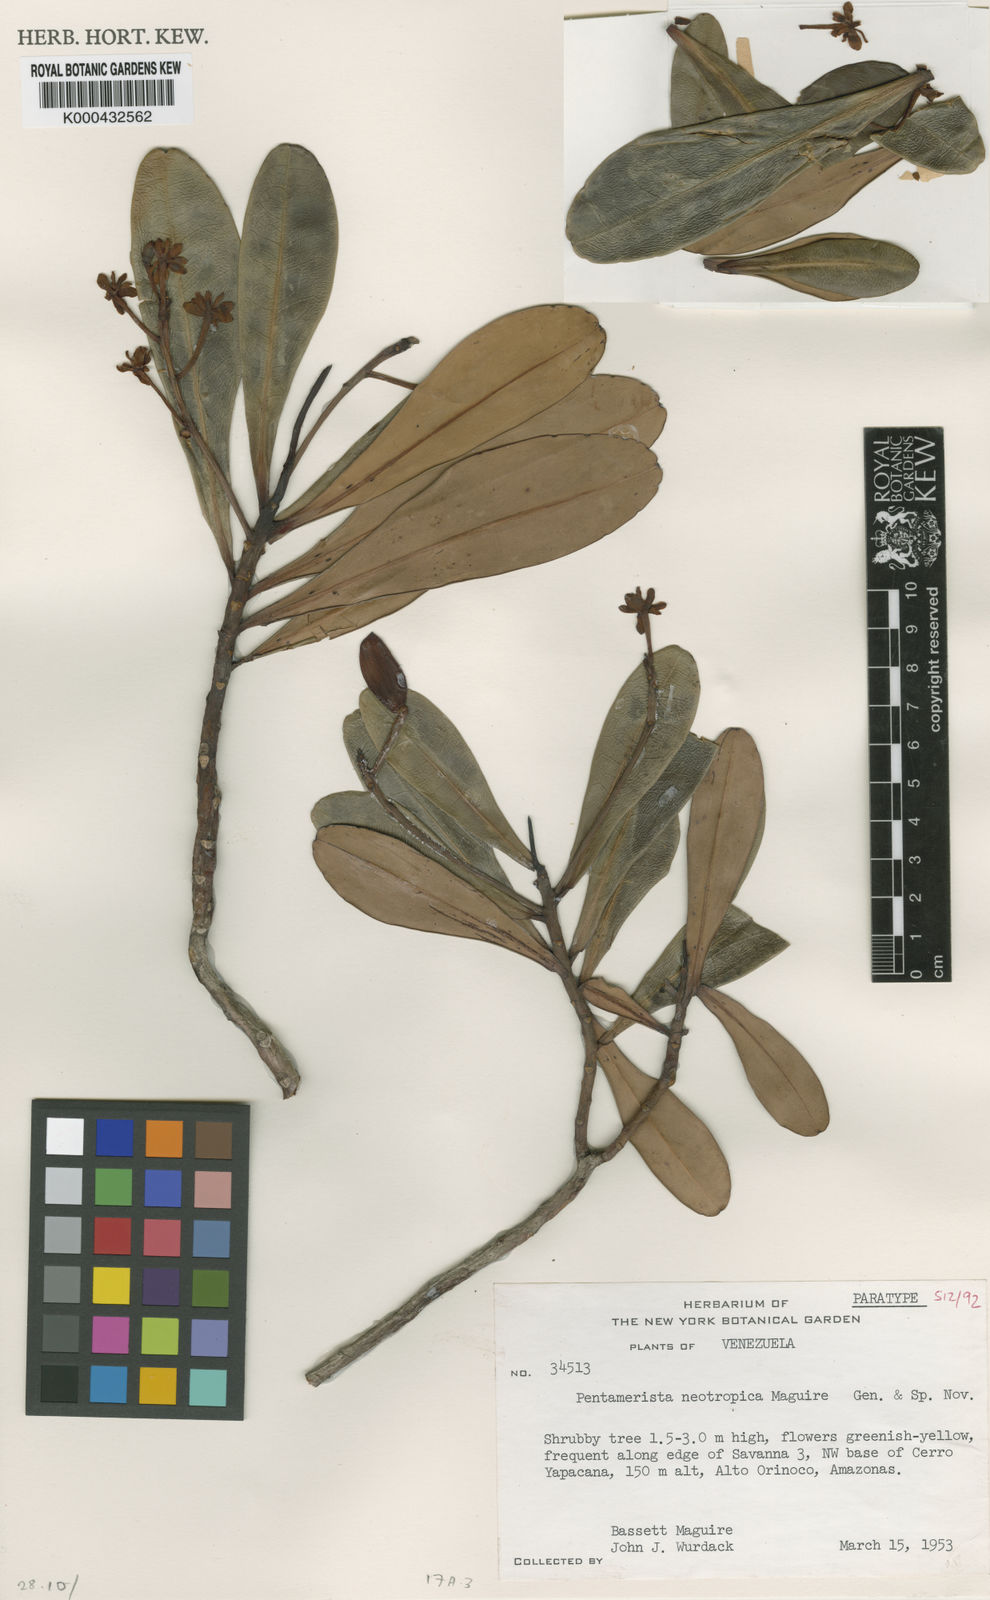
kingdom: Plantae
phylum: Tracheophyta
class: Magnoliopsida
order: Ericales
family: Tetrameristaceae
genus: Pentamerista
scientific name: Pentamerista neotropica
